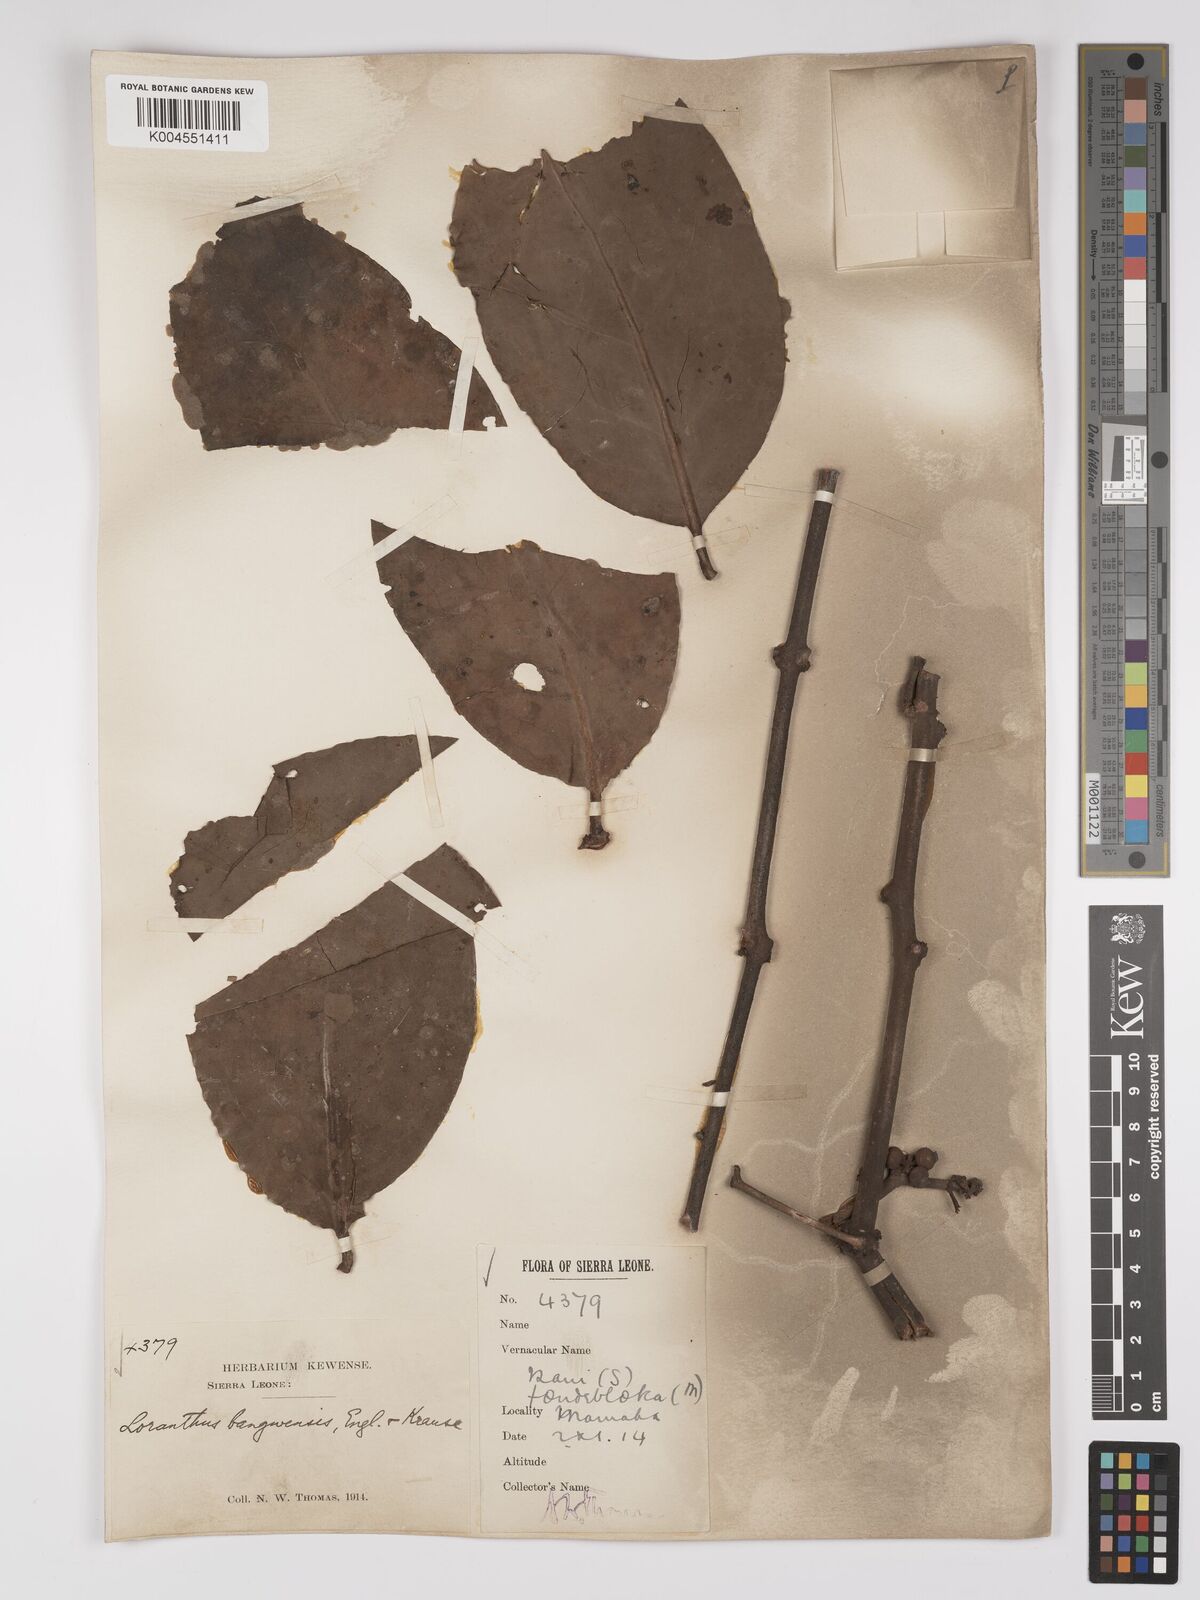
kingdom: Plantae
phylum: Tracheophyta
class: Magnoliopsida
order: Santalales
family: Loranthaceae
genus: Tapinanthus
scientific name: Tapinanthus bangwensis
